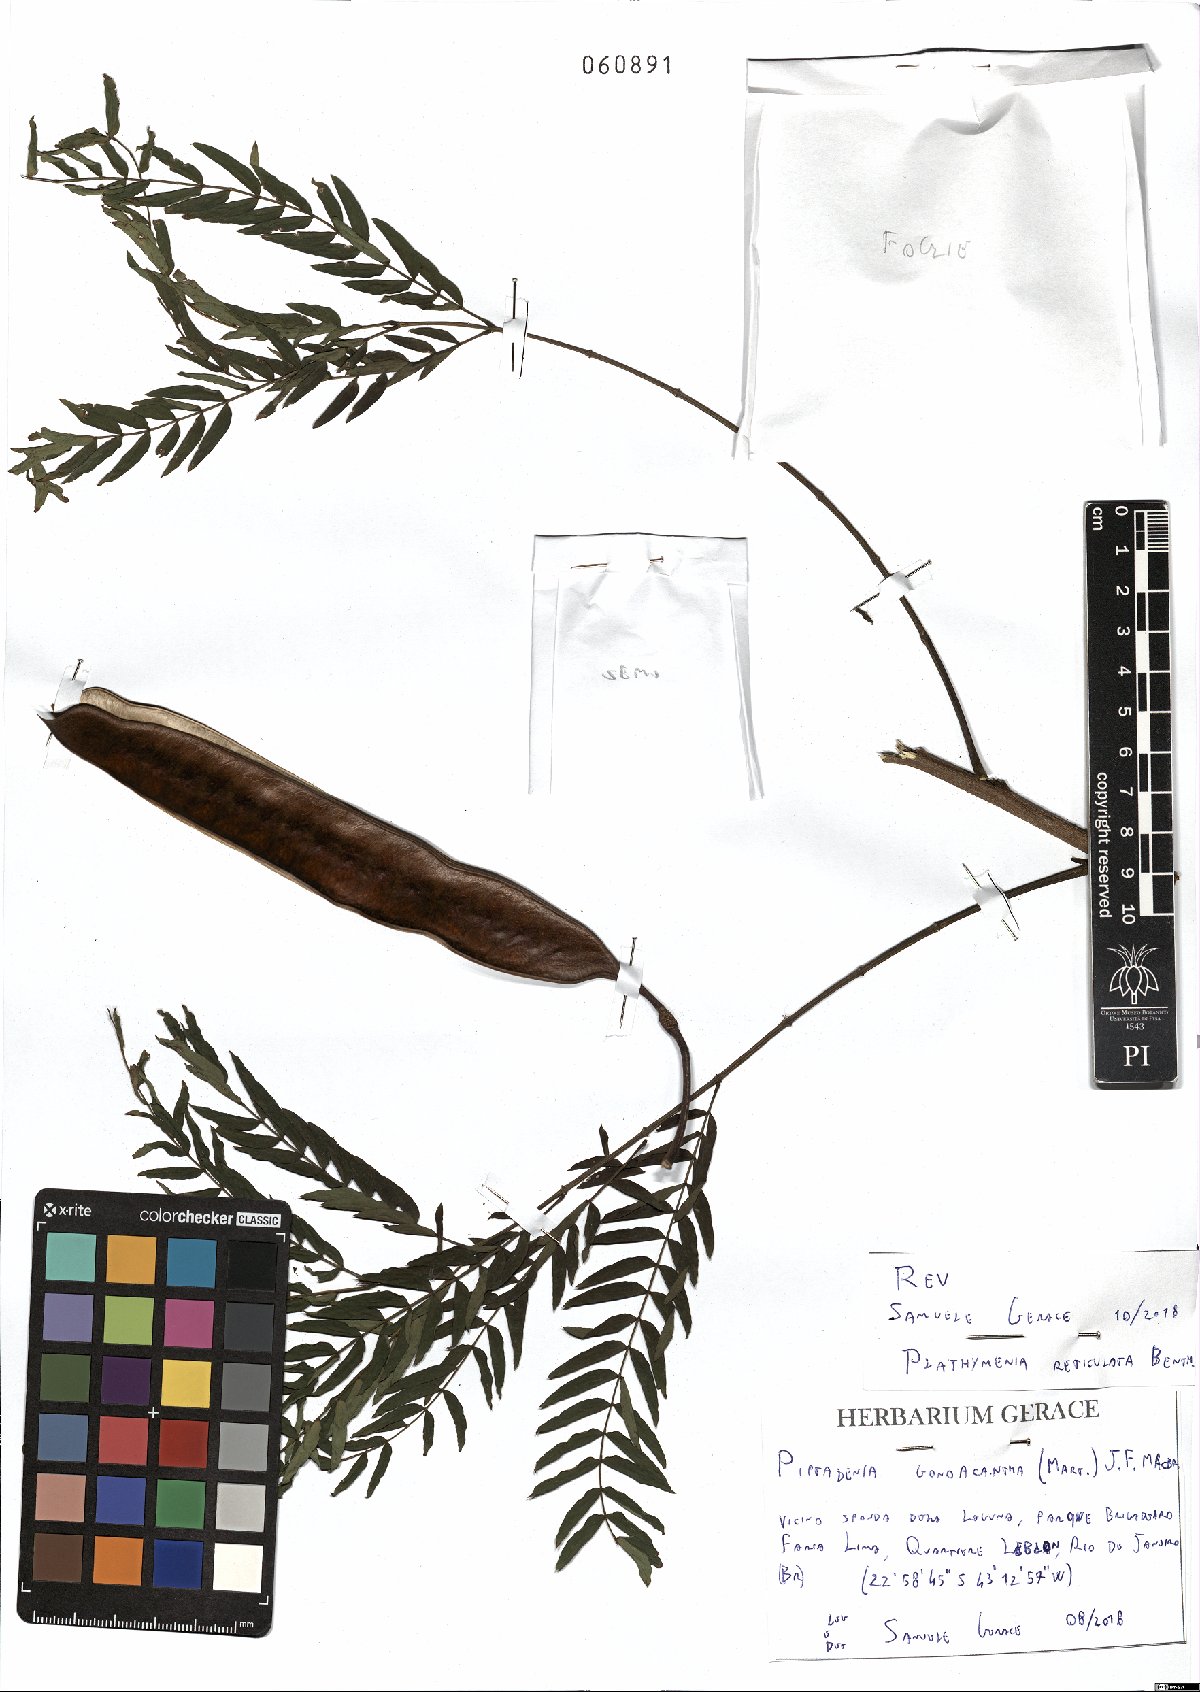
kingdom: Plantae
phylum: Tracheophyta
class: Magnoliopsida
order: Fabales
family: Fabaceae
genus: Plathymenia
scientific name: Plathymenia reticulata
